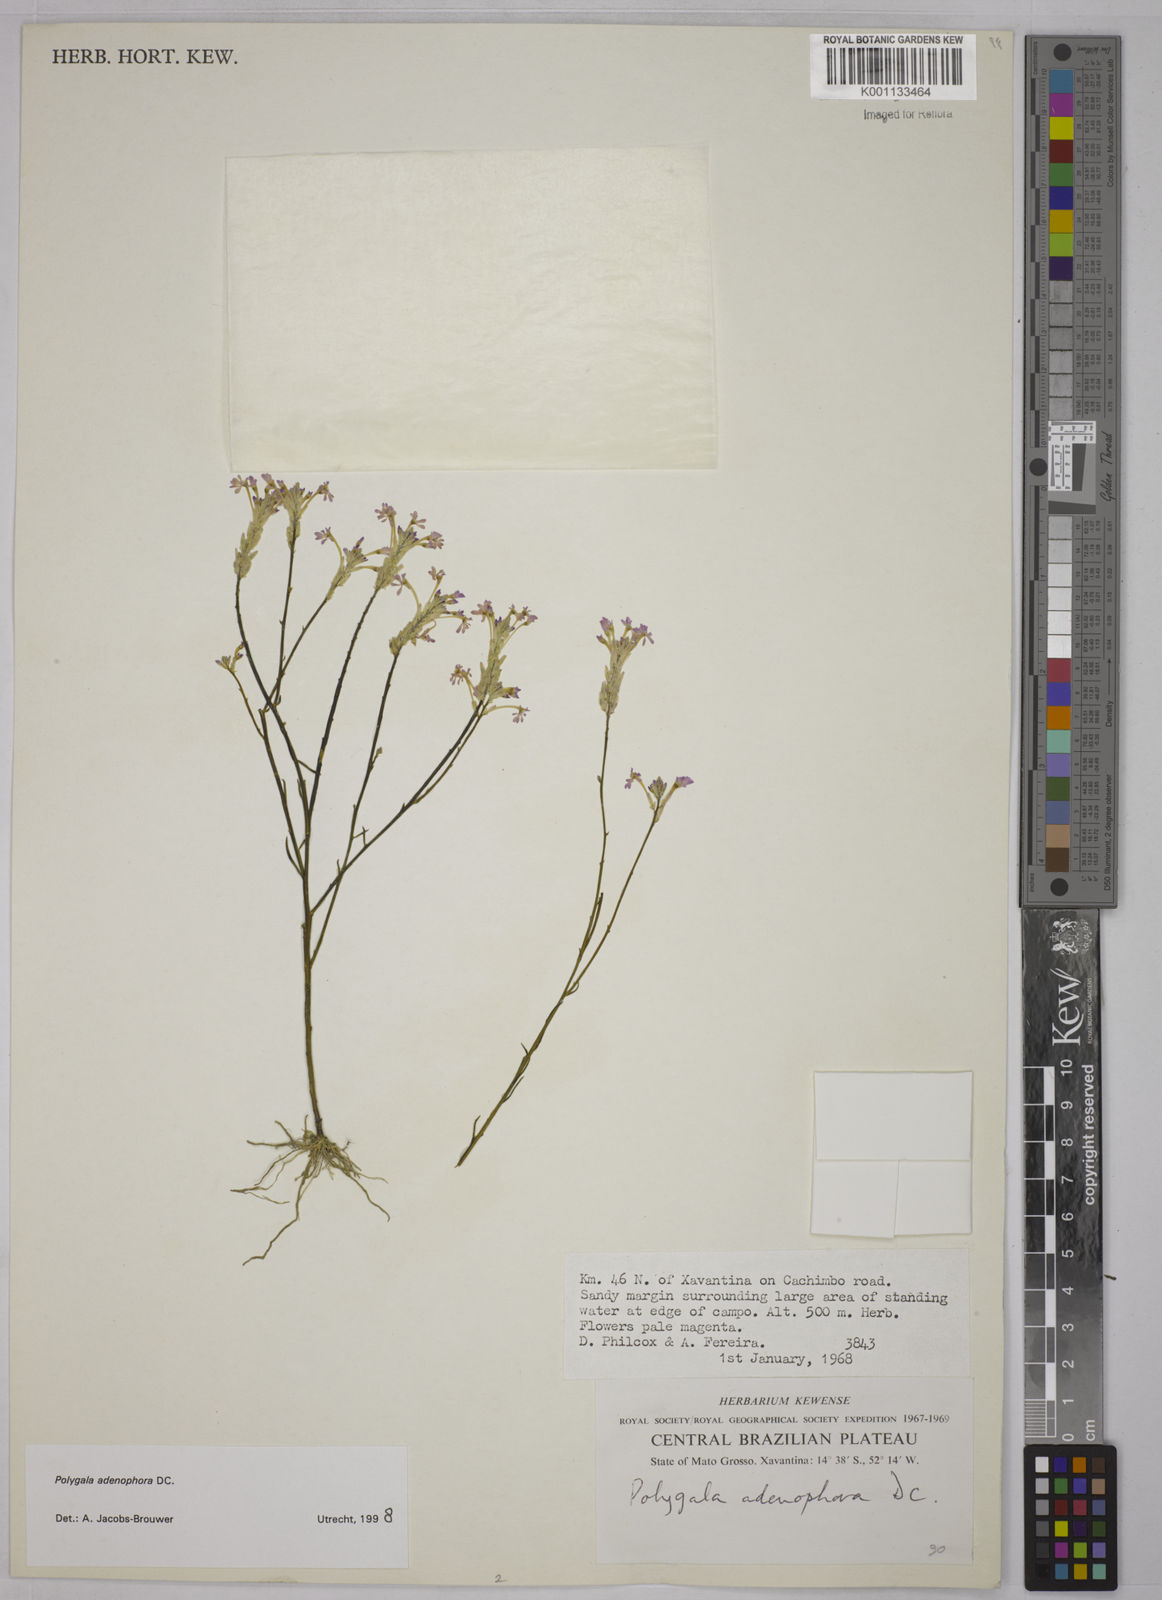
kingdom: Plantae
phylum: Tracheophyta
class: Magnoliopsida
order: Fabales
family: Polygalaceae
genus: Polygala
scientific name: Polygala adenophora
